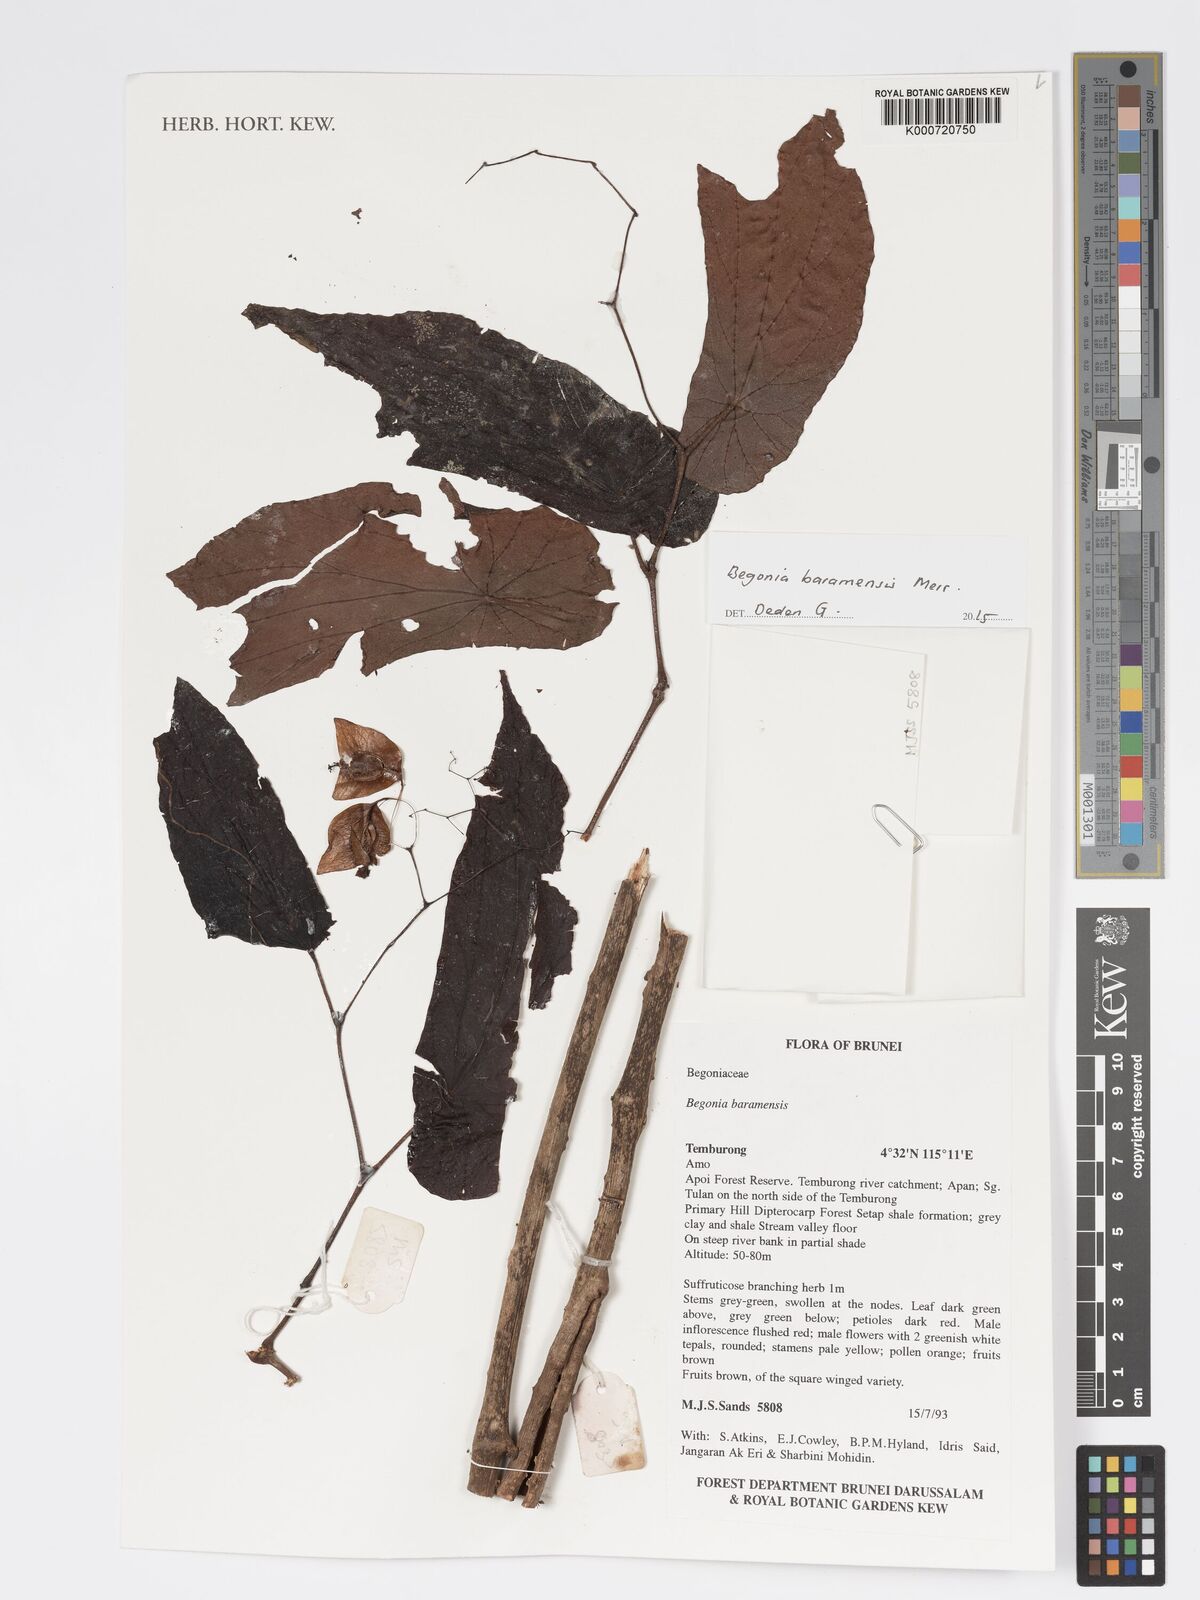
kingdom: Plantae
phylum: Tracheophyta
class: Magnoliopsida
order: Cucurbitales
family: Begoniaceae
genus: Begonia
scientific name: Begonia baramensis
